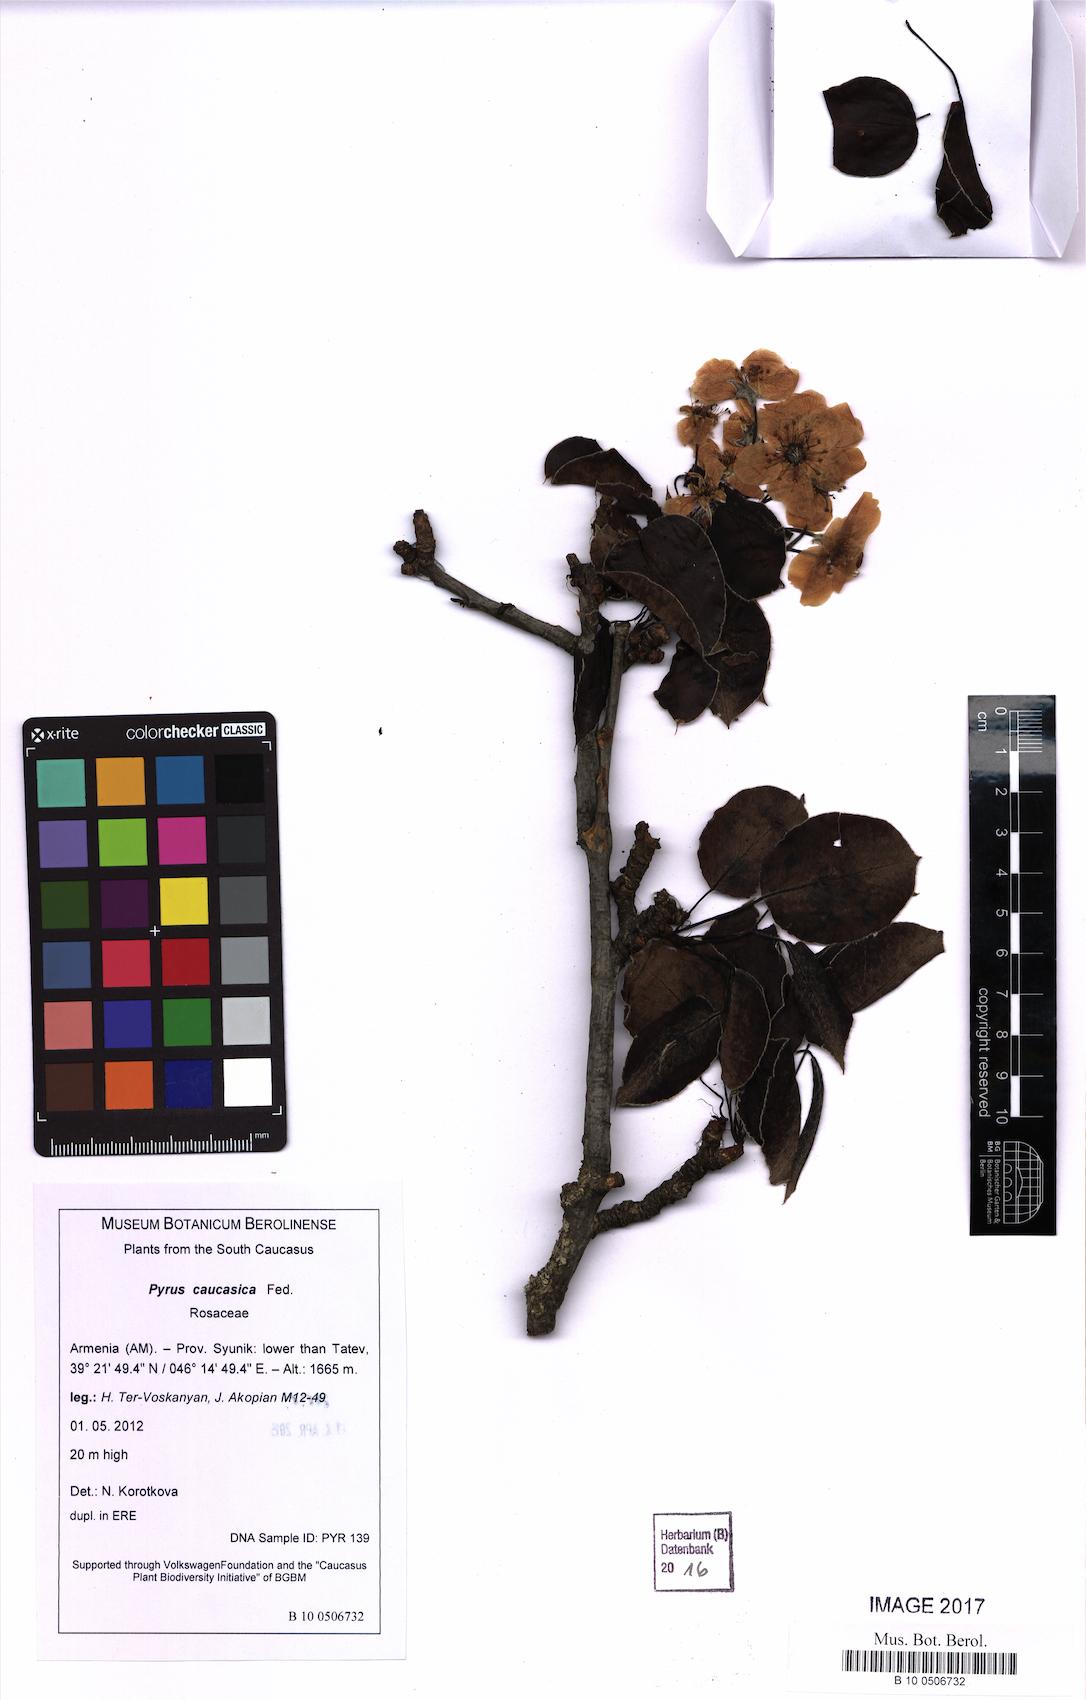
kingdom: Plantae
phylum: Tracheophyta
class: Magnoliopsida
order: Rosales
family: Rosaceae
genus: Pyrus
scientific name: Pyrus communis
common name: Pear
